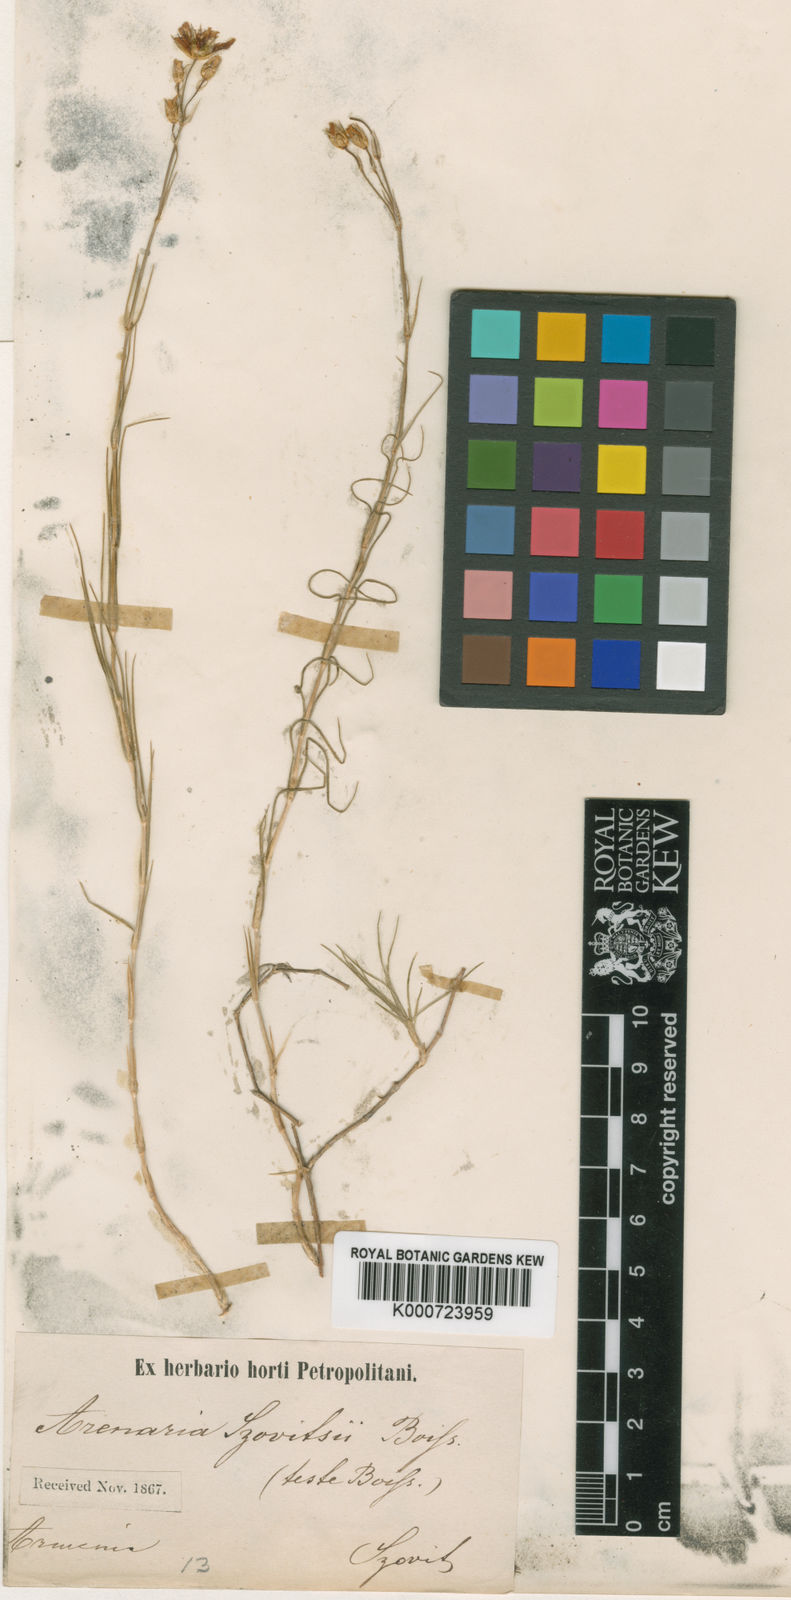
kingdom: Plantae
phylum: Tracheophyta
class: Magnoliopsida
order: Caryophyllales
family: Caryophyllaceae
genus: Eremogone
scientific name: Eremogone szowitsii
